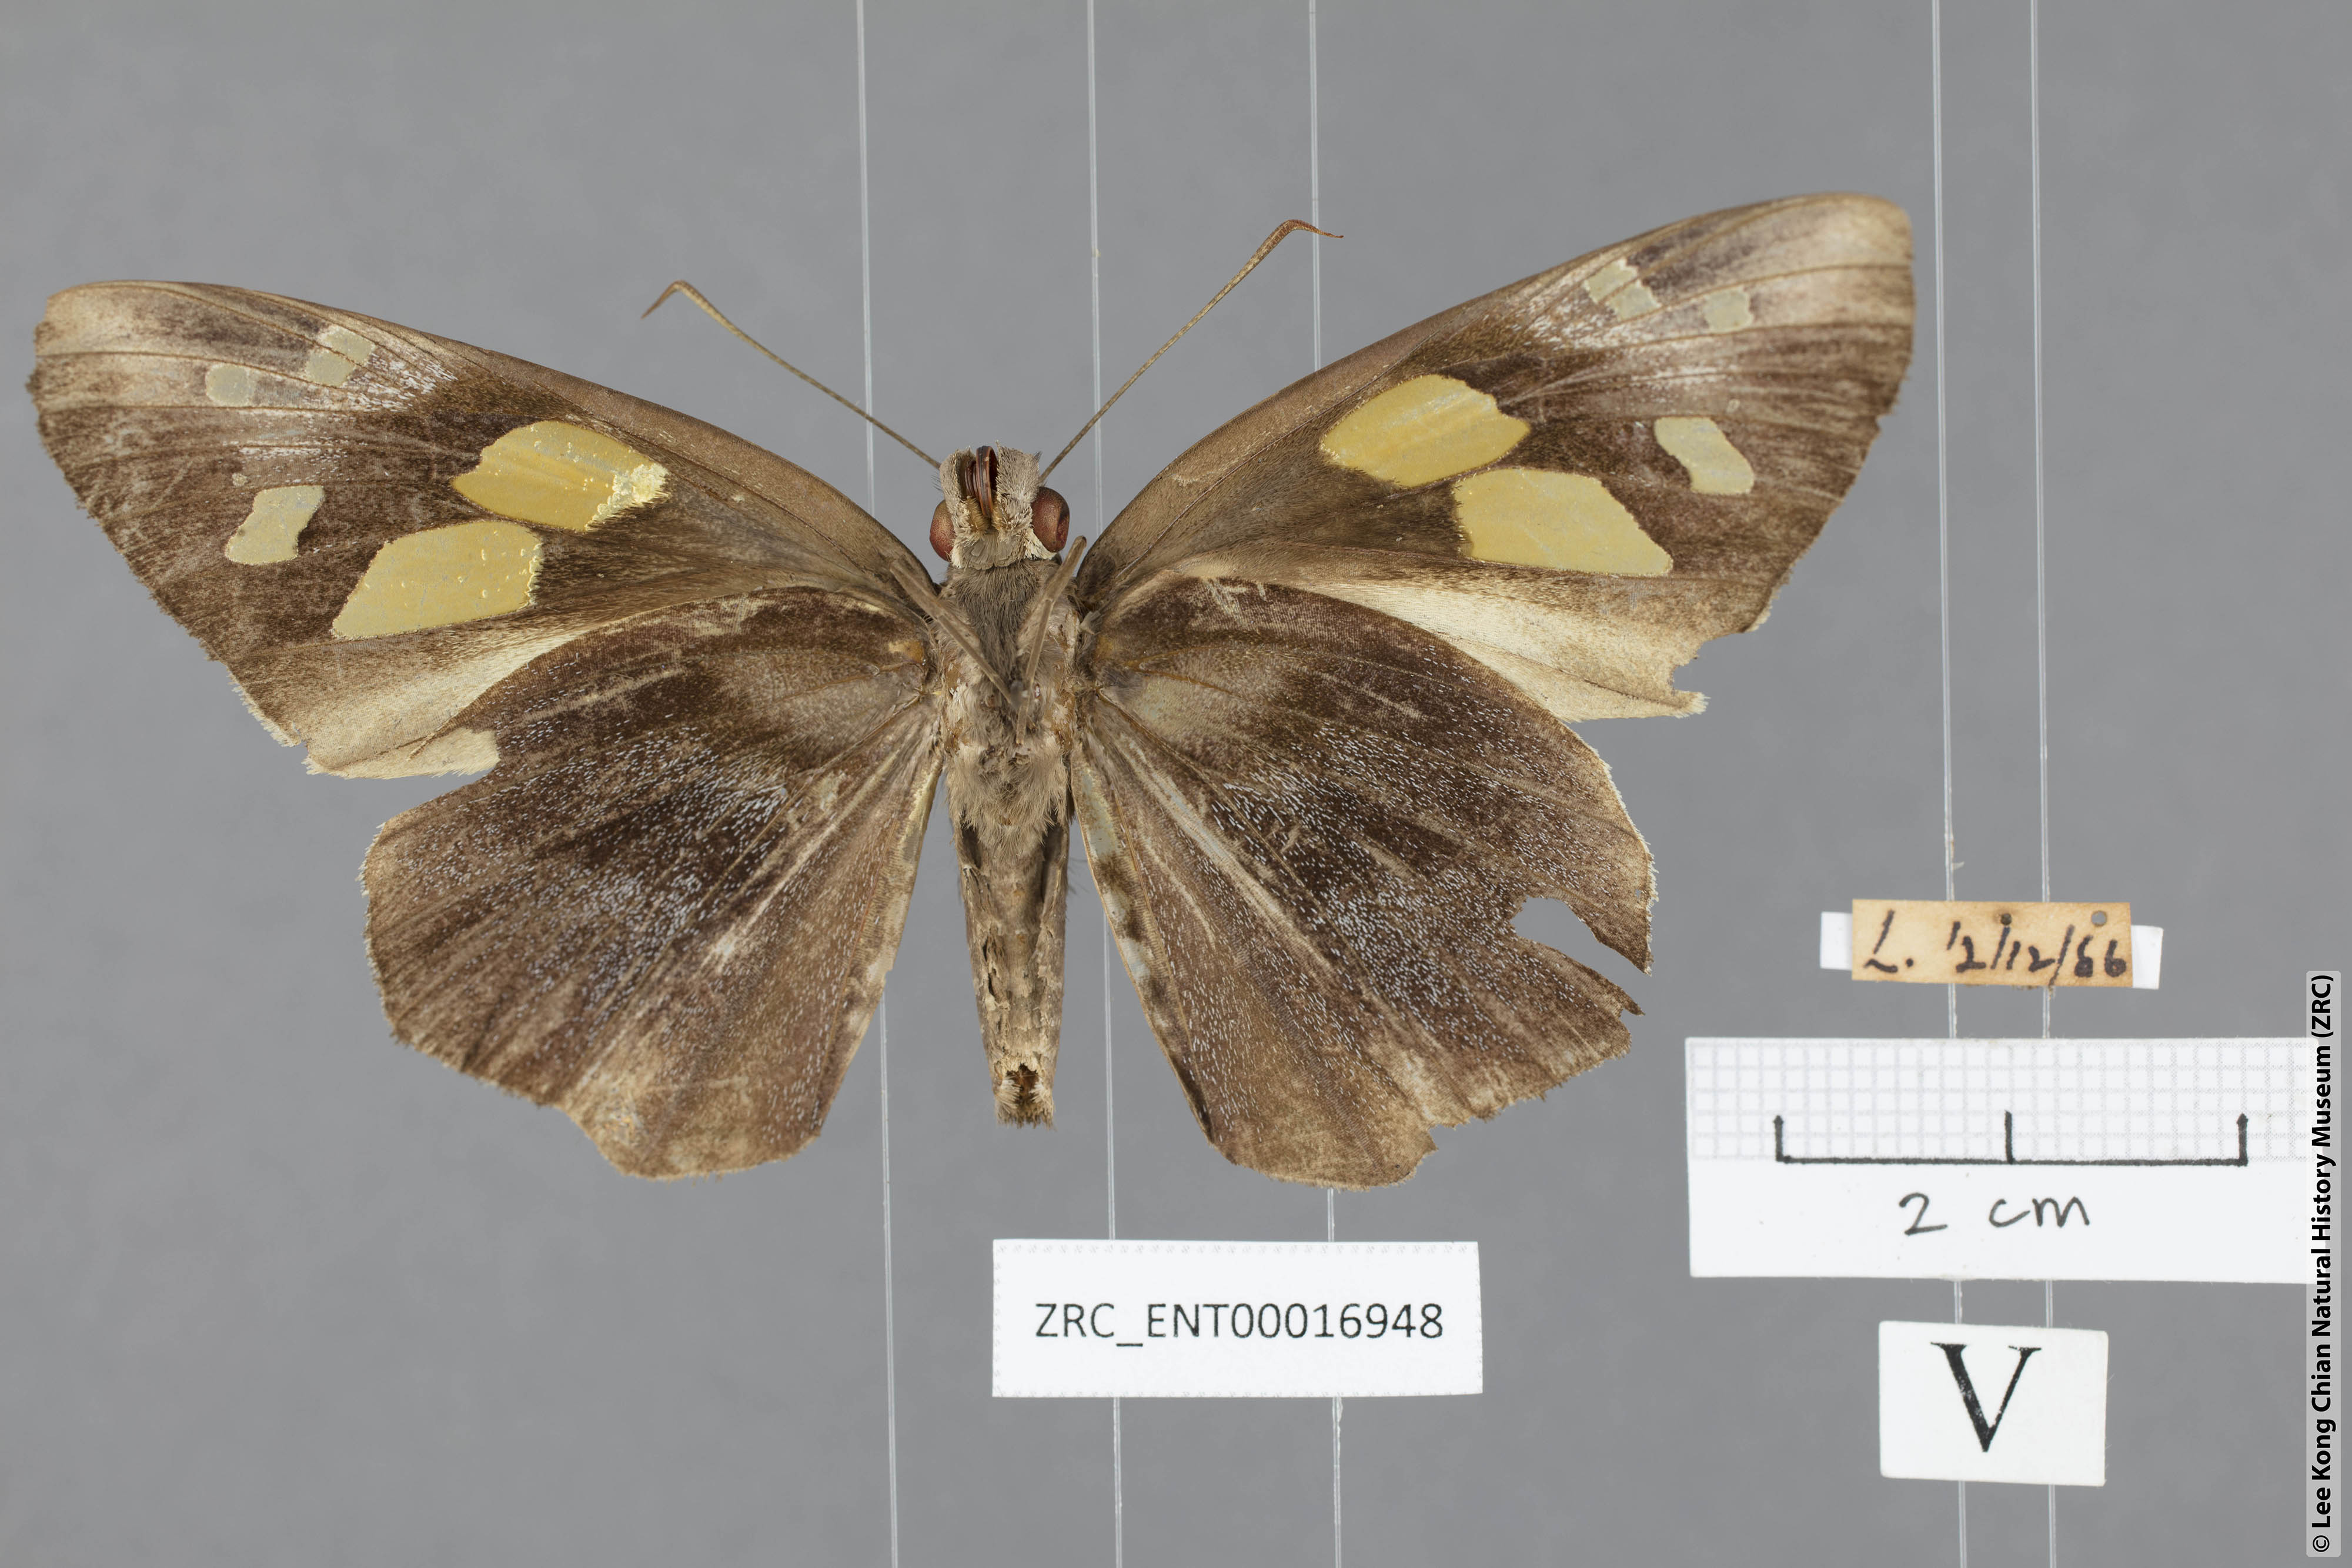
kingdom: Animalia
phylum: Arthropoda
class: Insecta
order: Lepidoptera
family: Hesperiidae
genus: Gangara
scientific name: Gangara thyrsis
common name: Giant redeye
